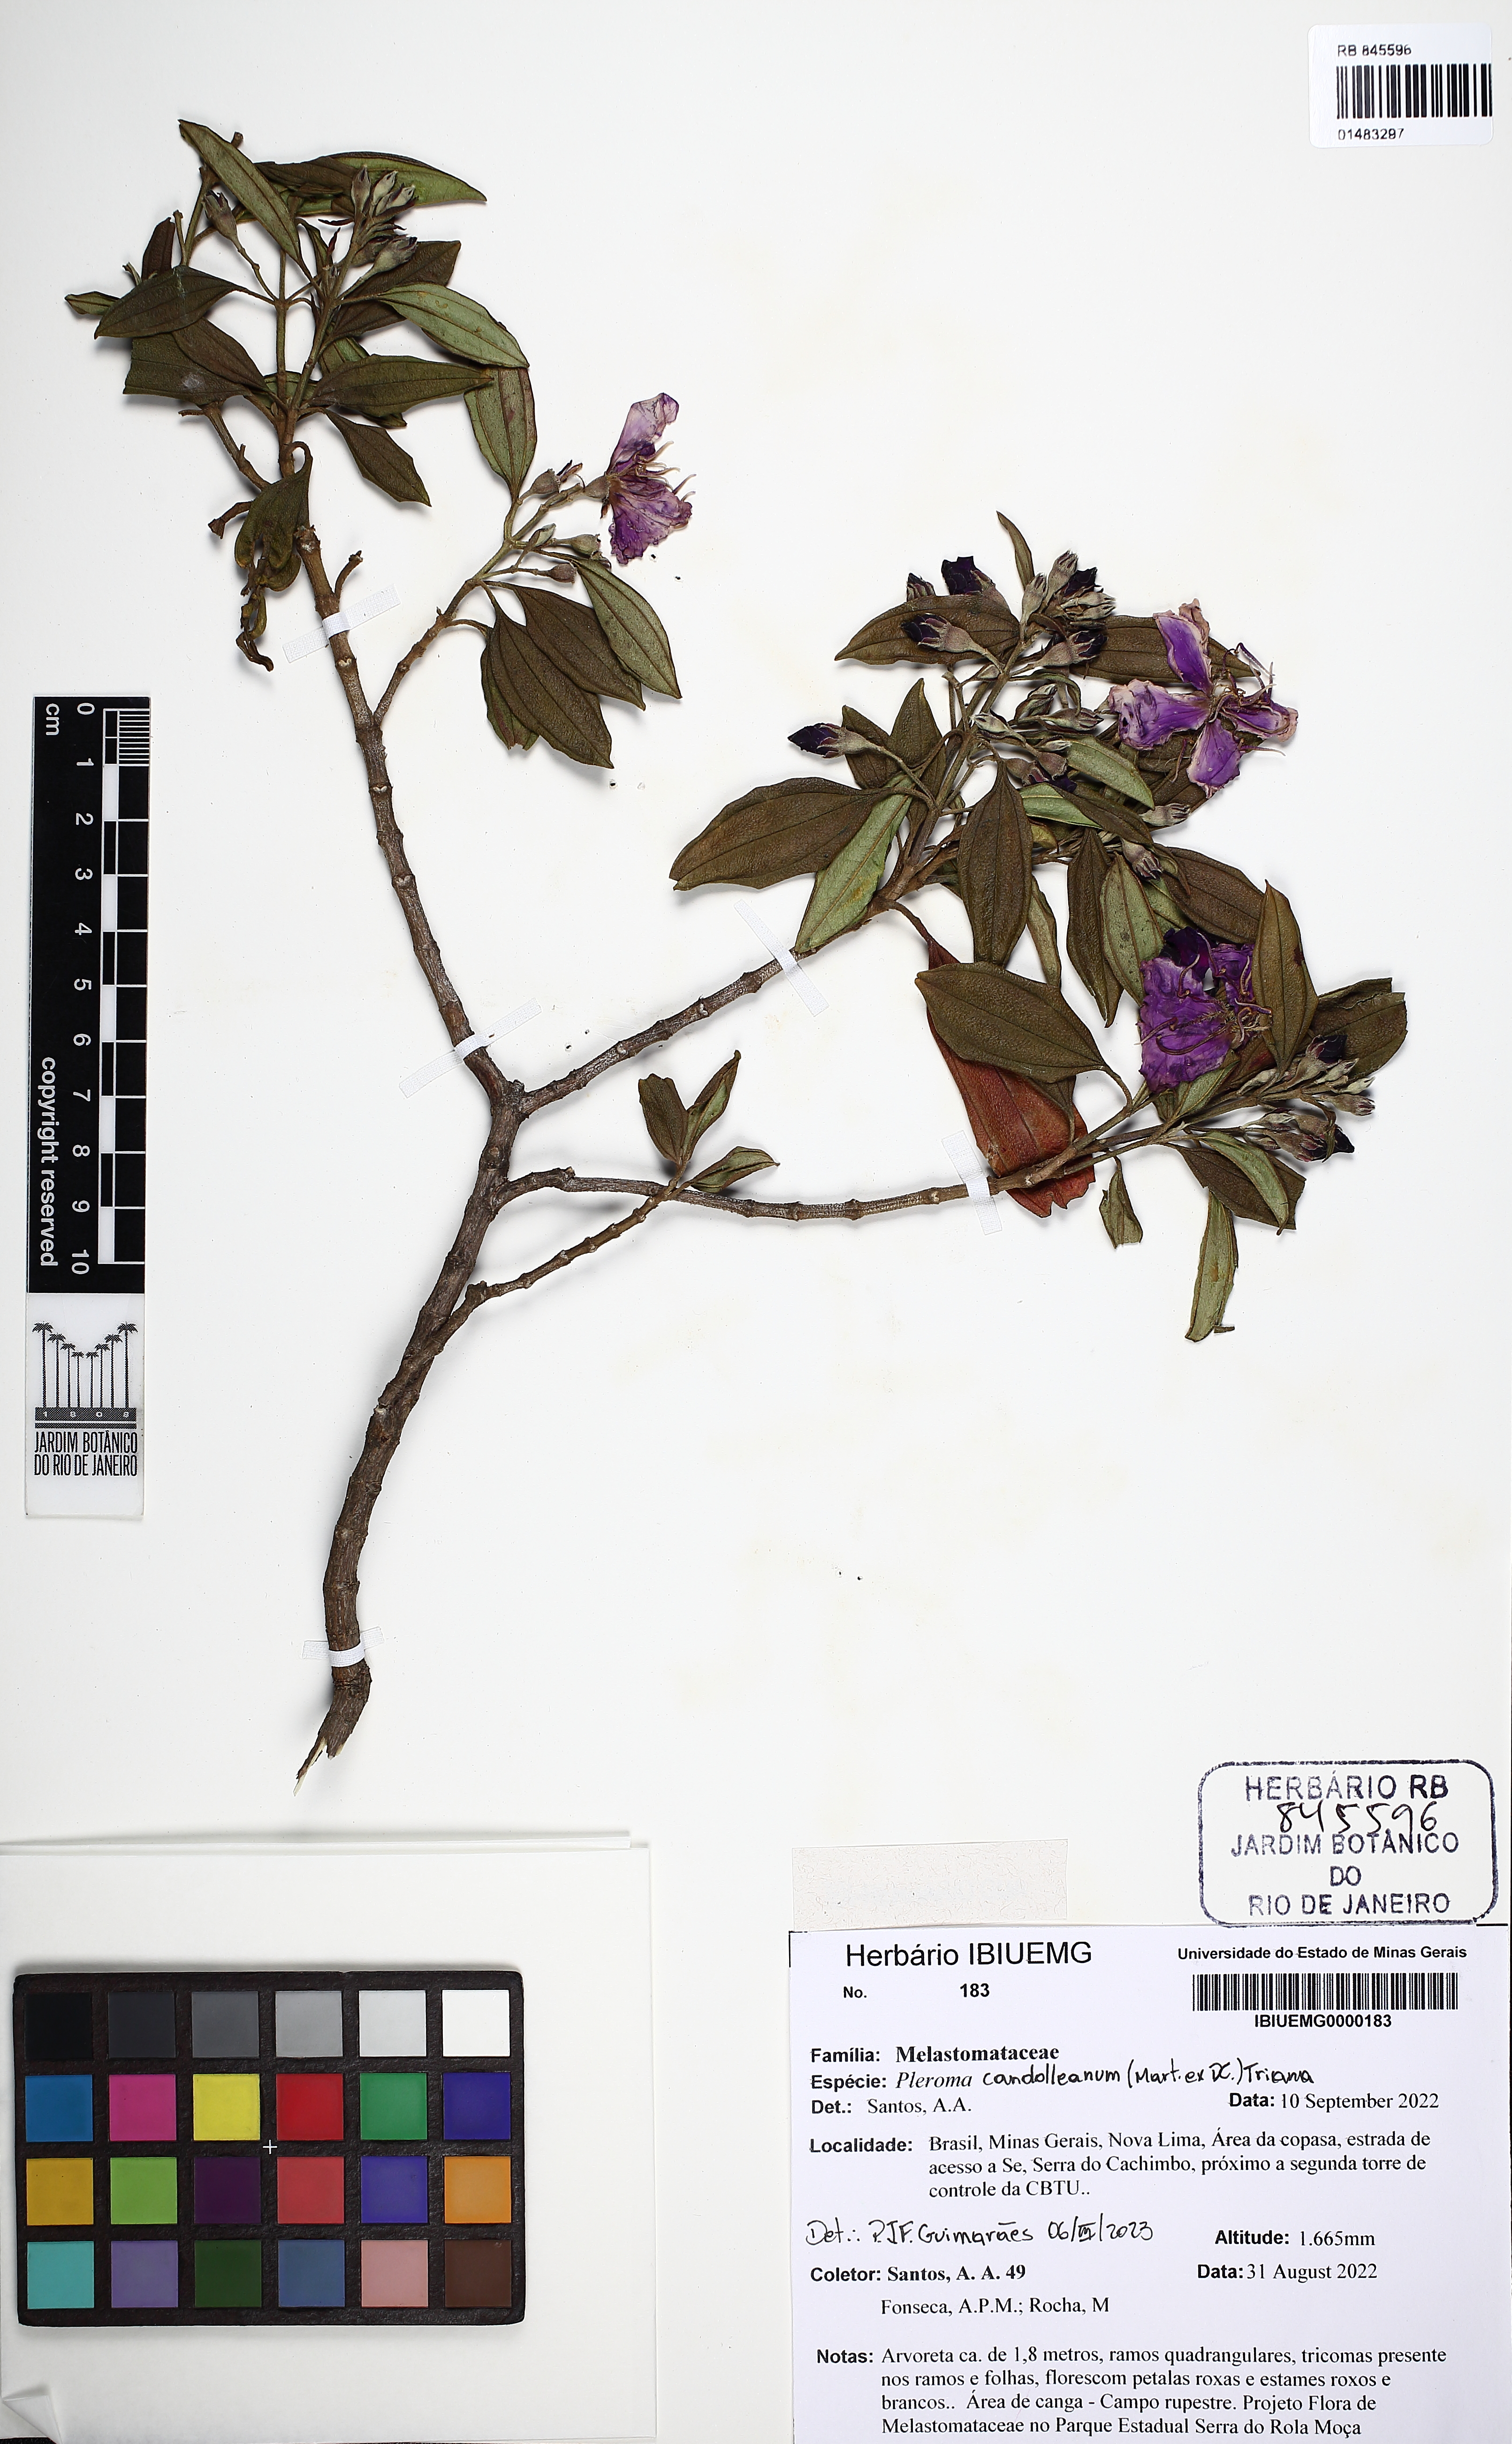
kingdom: Plantae
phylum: Tracheophyta
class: Magnoliopsida
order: Myrtales
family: Melastomataceae
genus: Pleroma
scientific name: Pleroma candolleanum
